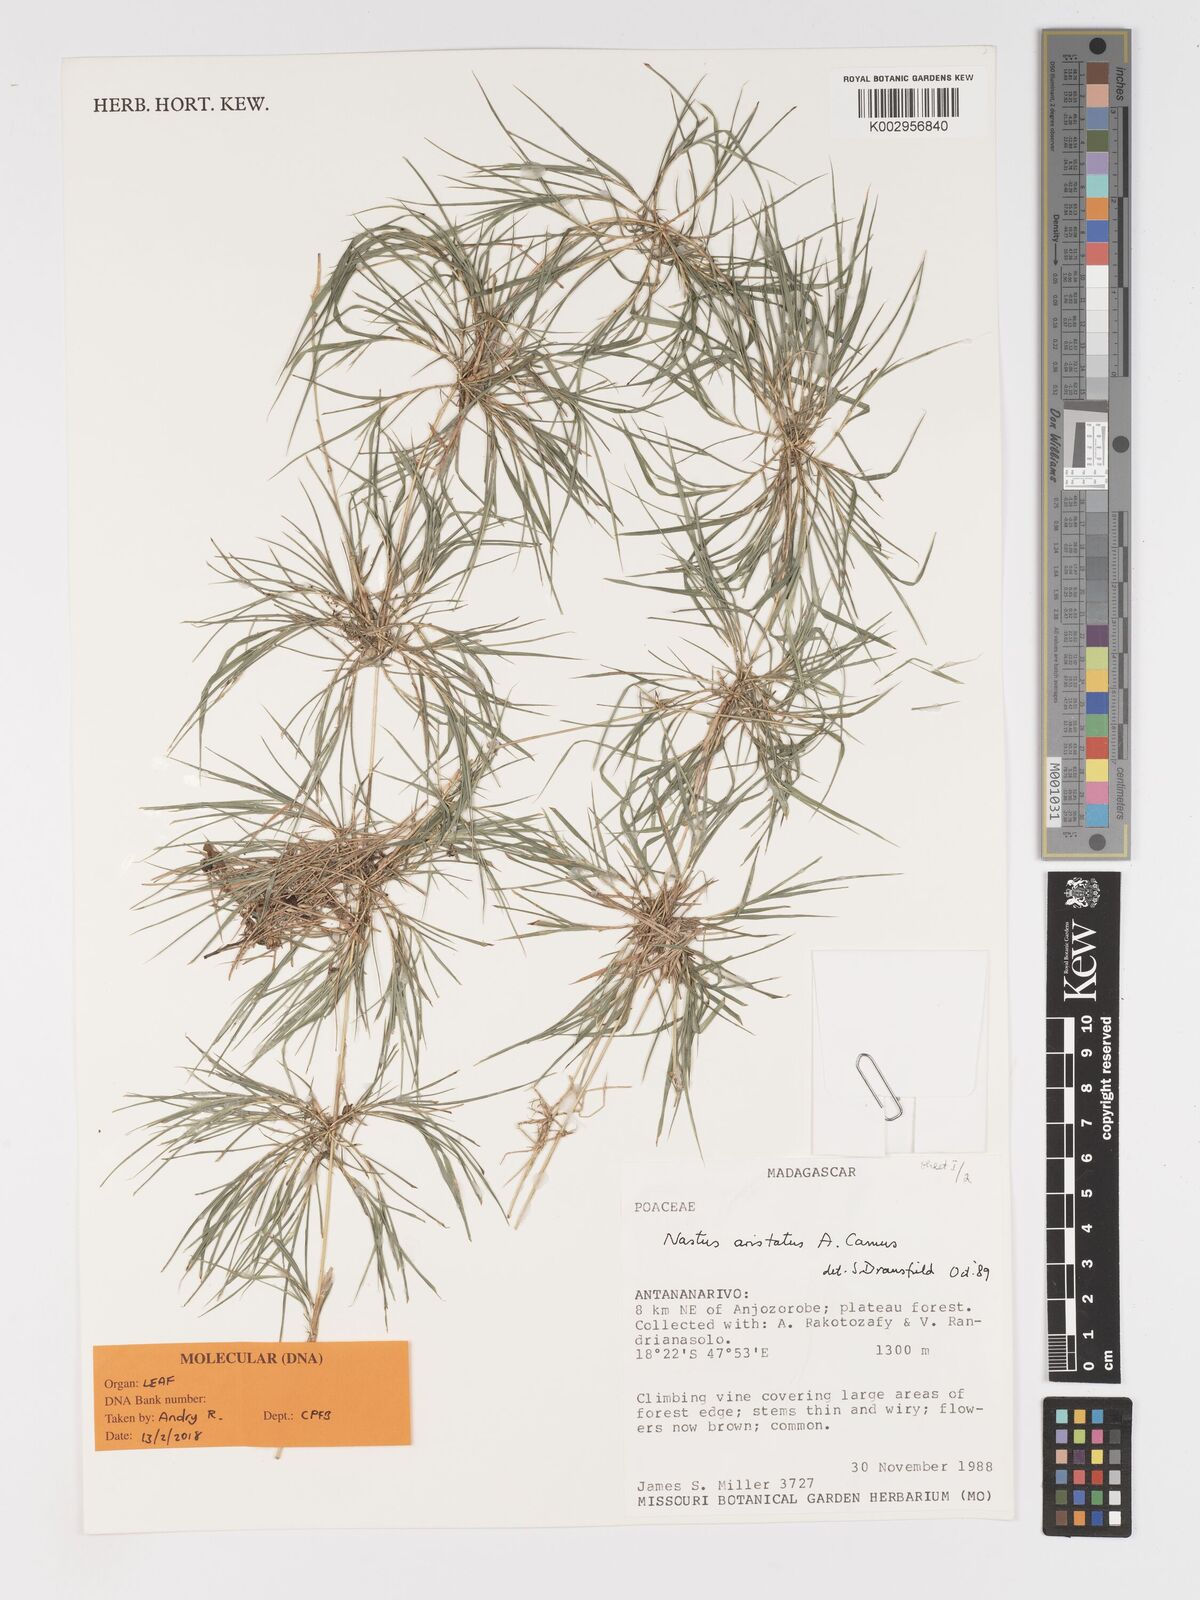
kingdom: Plantae
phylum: Tracheophyta
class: Liliopsida
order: Poales
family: Poaceae
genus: Nastus
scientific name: Nastus aristatus
